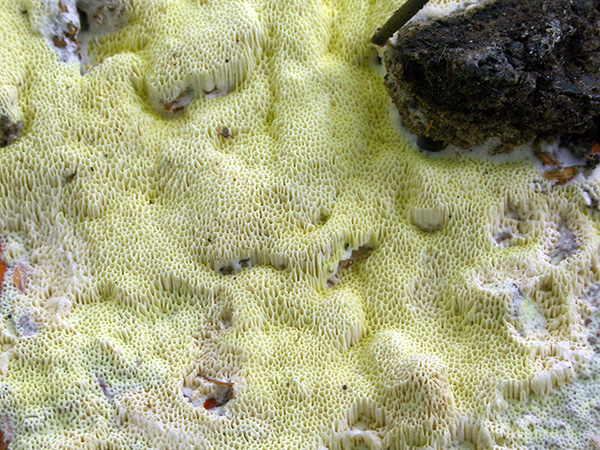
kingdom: Fungi
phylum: Basidiomycota
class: Agaricomycetes
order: Polyporales
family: Fomitopsidaceae
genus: Daedalea
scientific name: Daedalea xantha
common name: gul sejporesvamp
